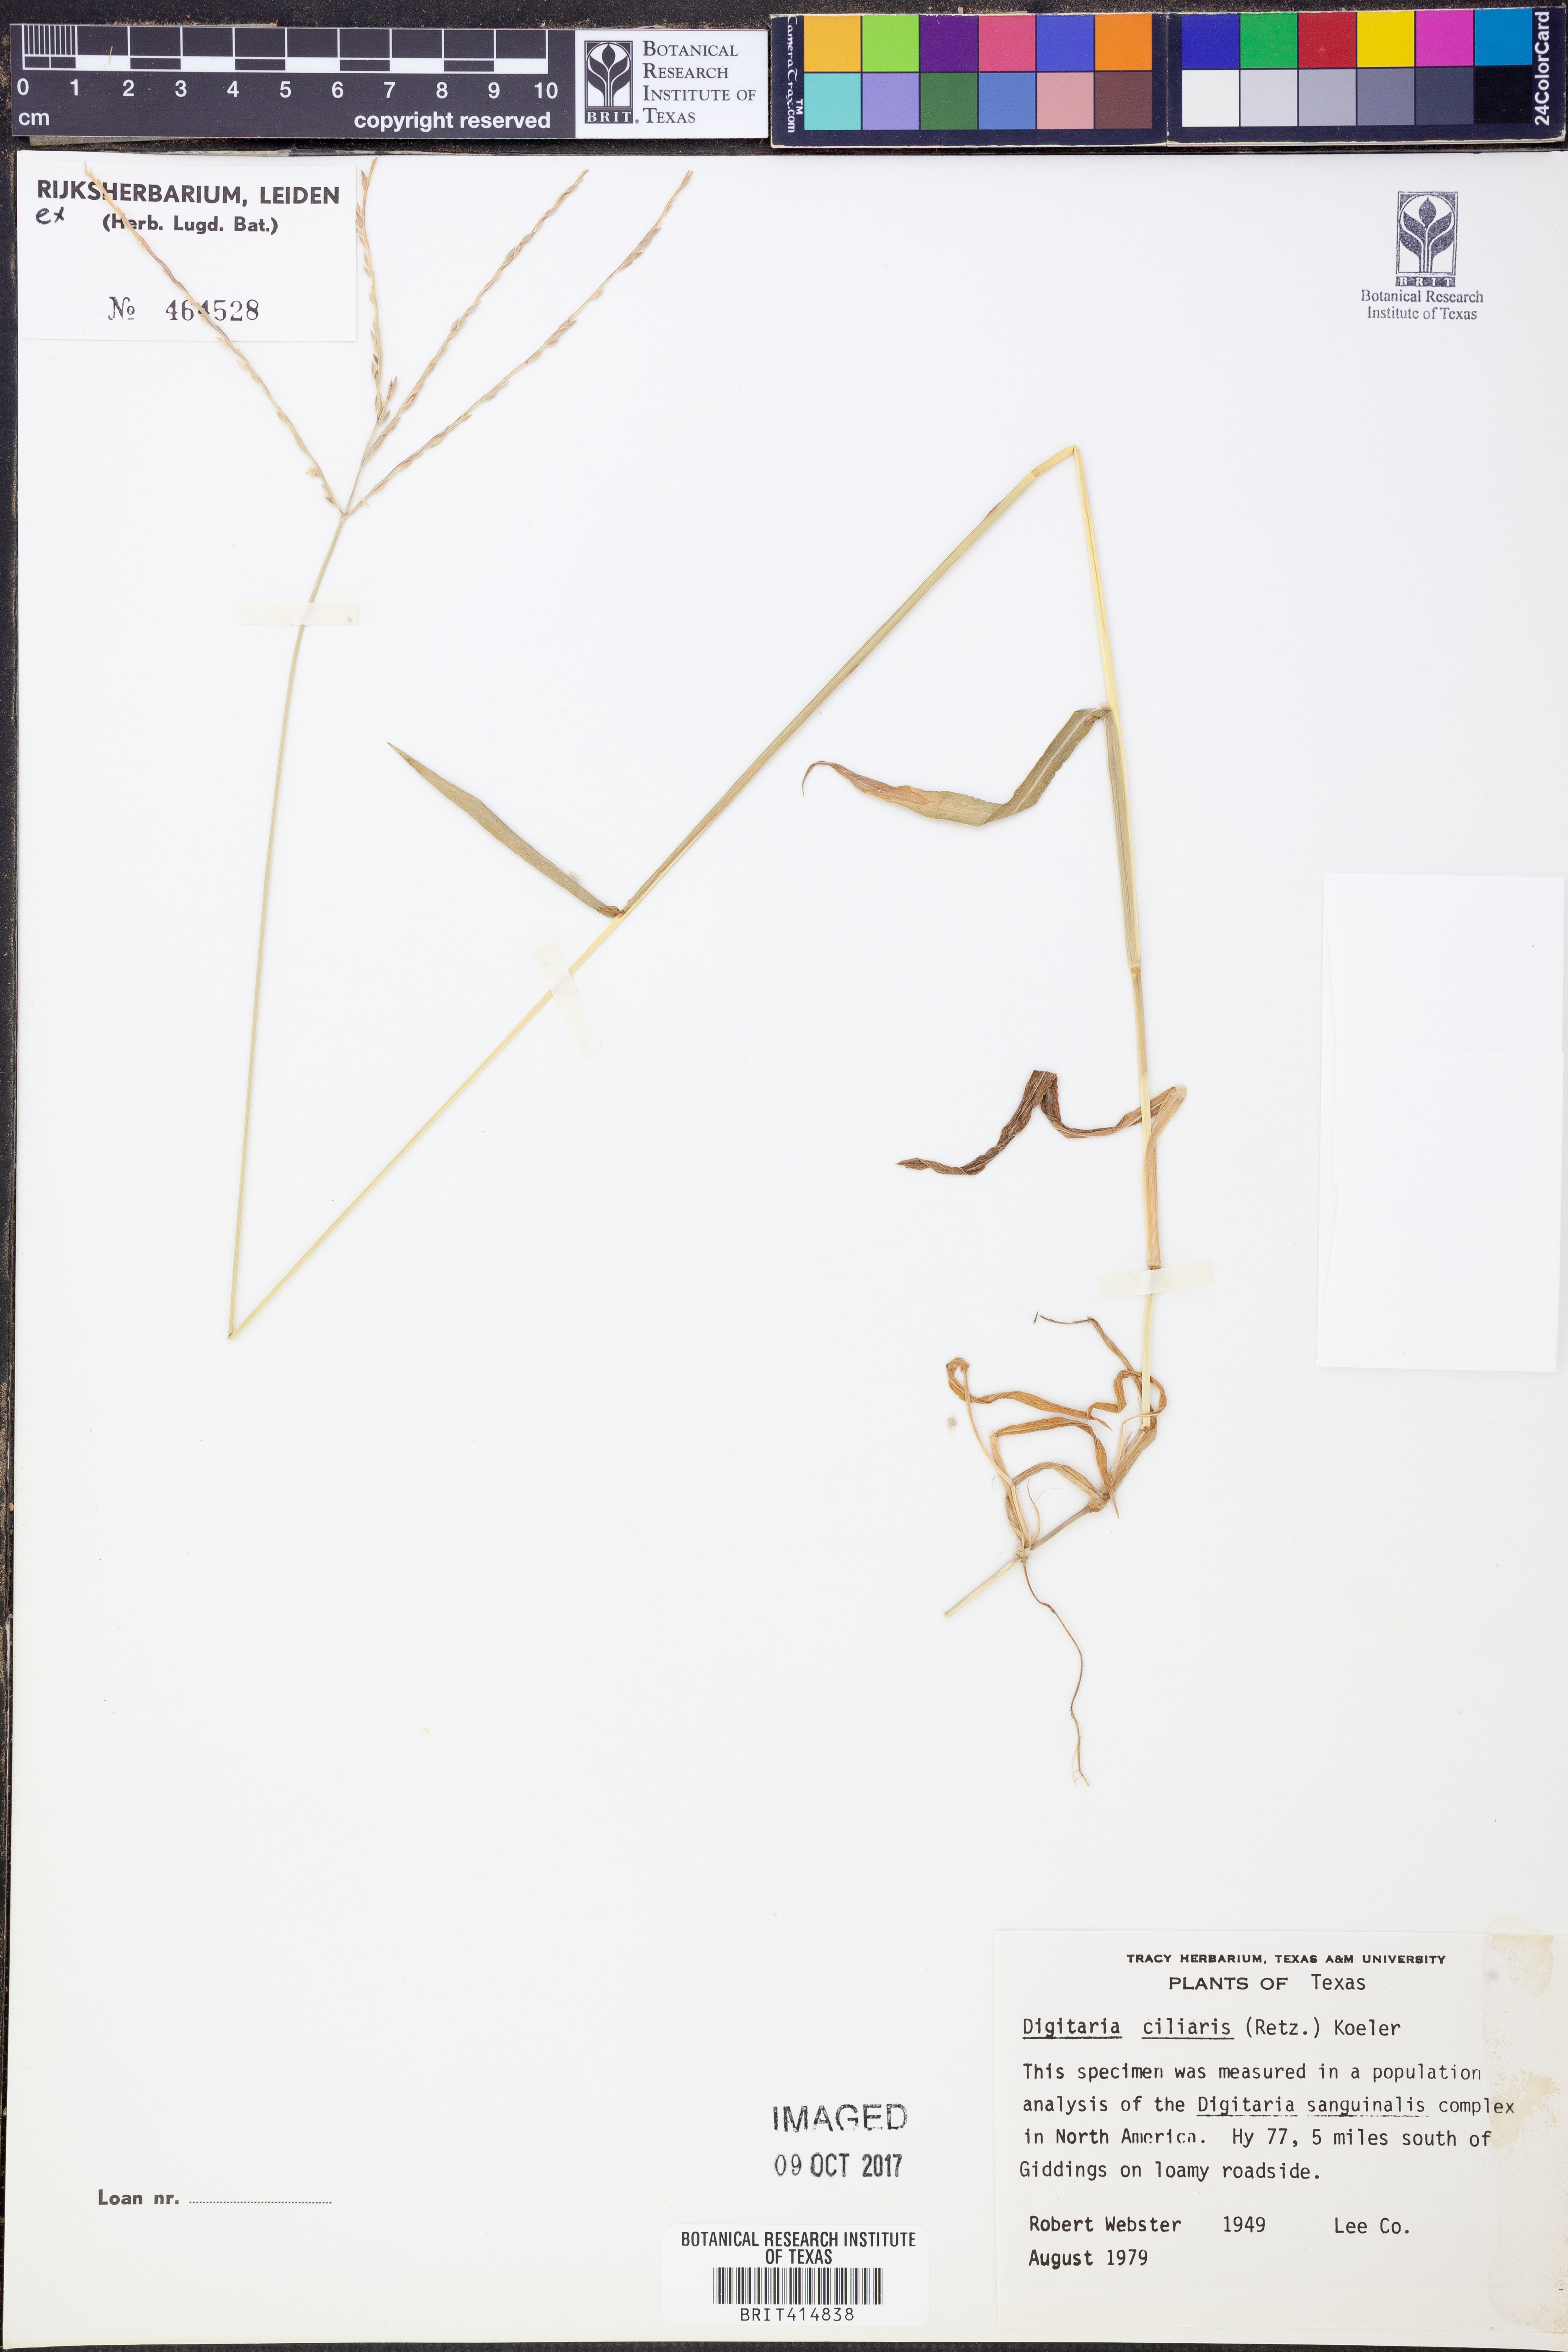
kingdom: Plantae
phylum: Tracheophyta
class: Liliopsida
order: Poales
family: Poaceae
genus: Digitaria
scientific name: Digitaria ciliaris
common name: Tropical finger-grass
